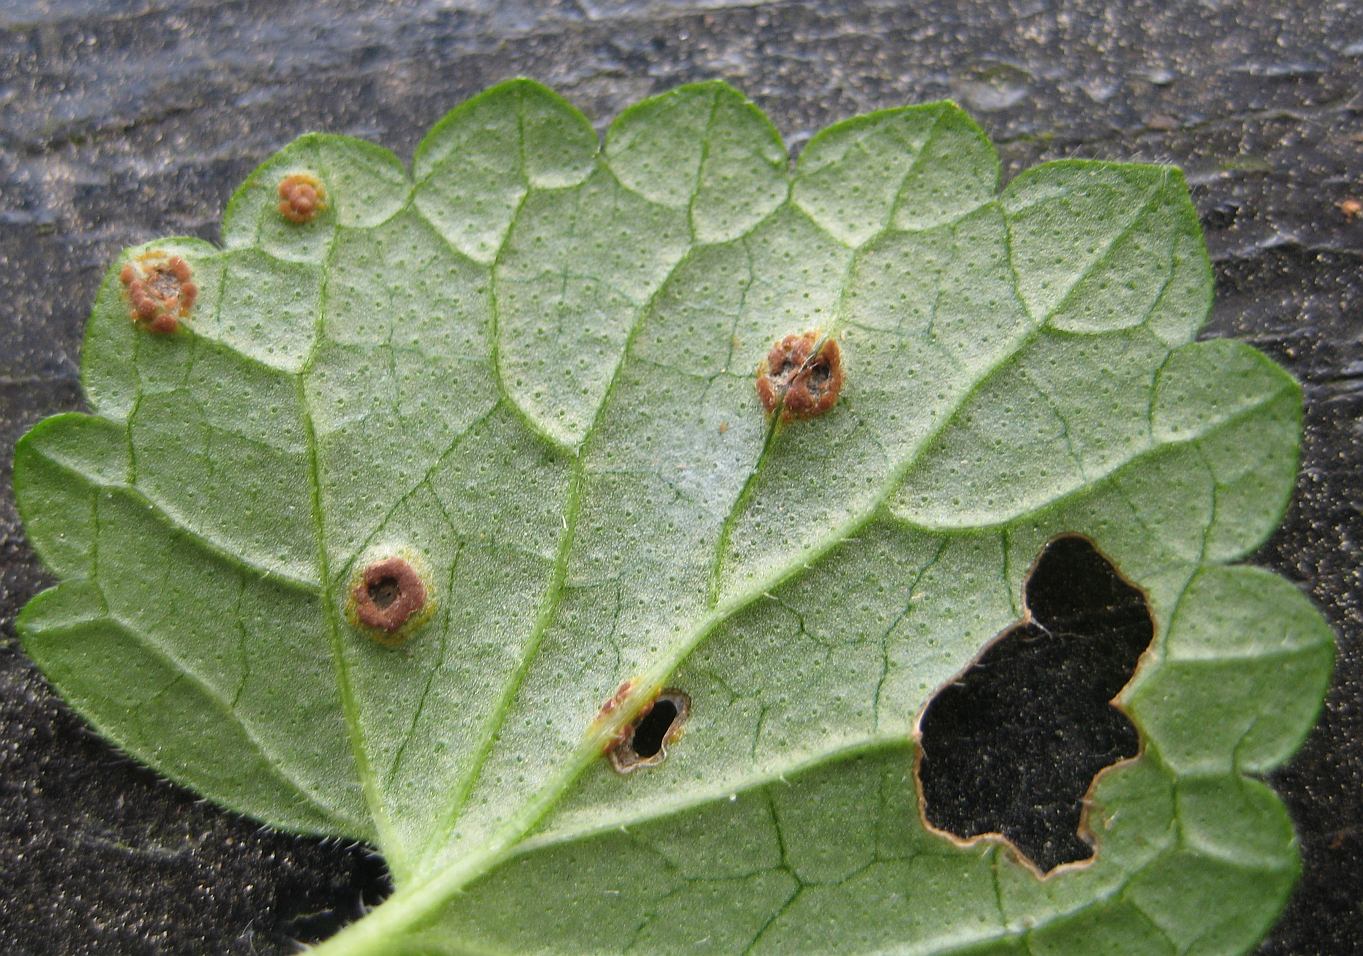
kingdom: Fungi
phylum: Basidiomycota
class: Pucciniomycetes
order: Pucciniales
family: Pucciniaceae
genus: Puccinia
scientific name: Puccinia glechomatis
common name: Ground ivy rust
